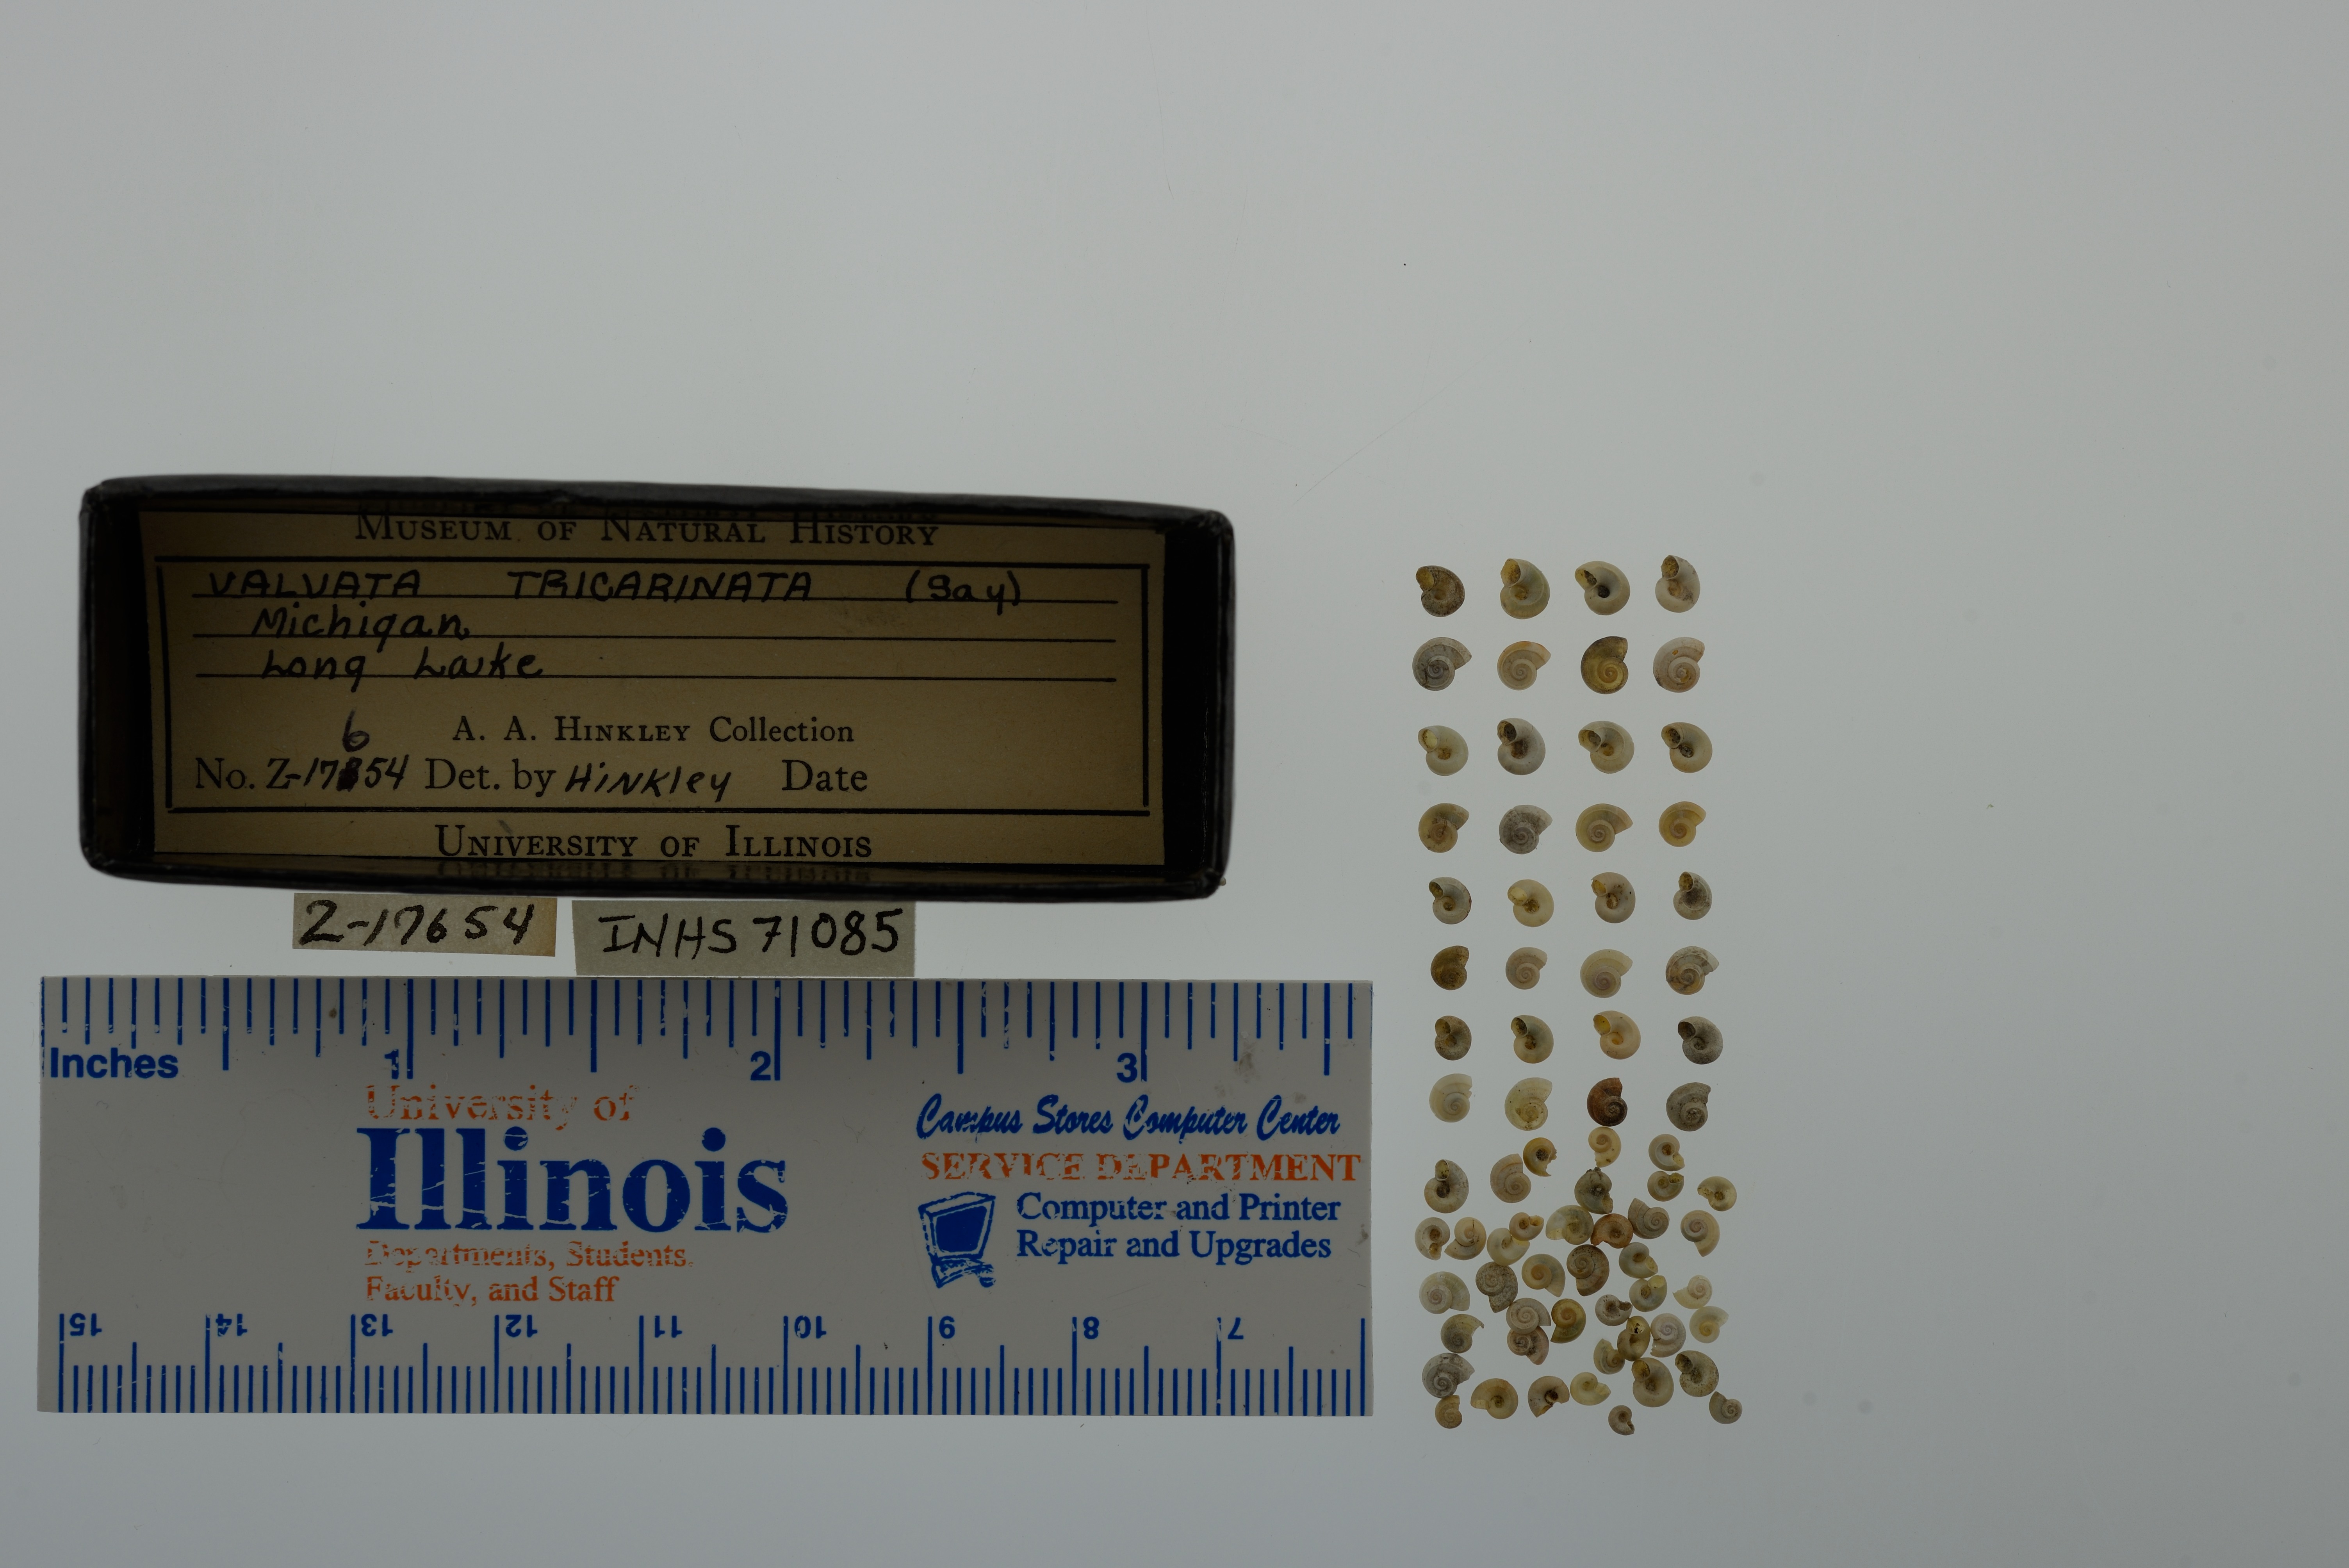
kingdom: Animalia
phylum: Mollusca
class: Gastropoda
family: Valvatidae
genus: Valvata
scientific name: Valvata tricarinata
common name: Three-ridge valvata
